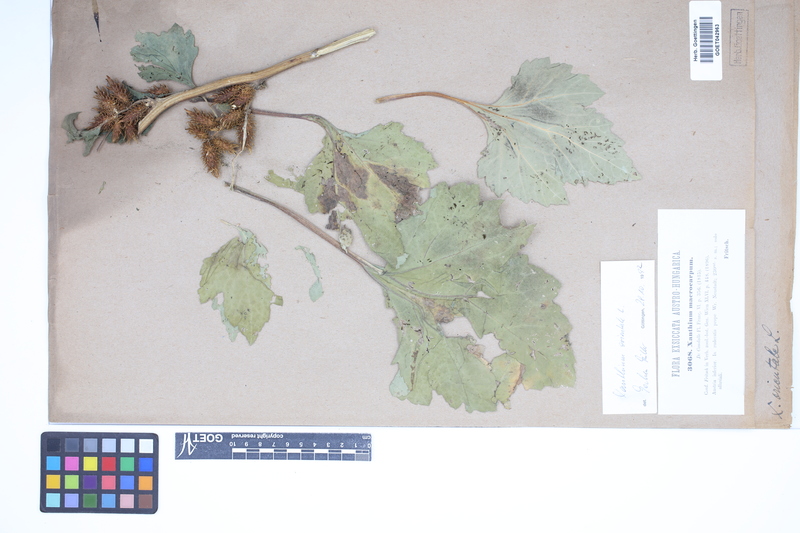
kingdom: Plantae
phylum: Tracheophyta
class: Magnoliopsida
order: Asterales
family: Asteraceae
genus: Xanthium
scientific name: Xanthium orientale
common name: Californian burr
